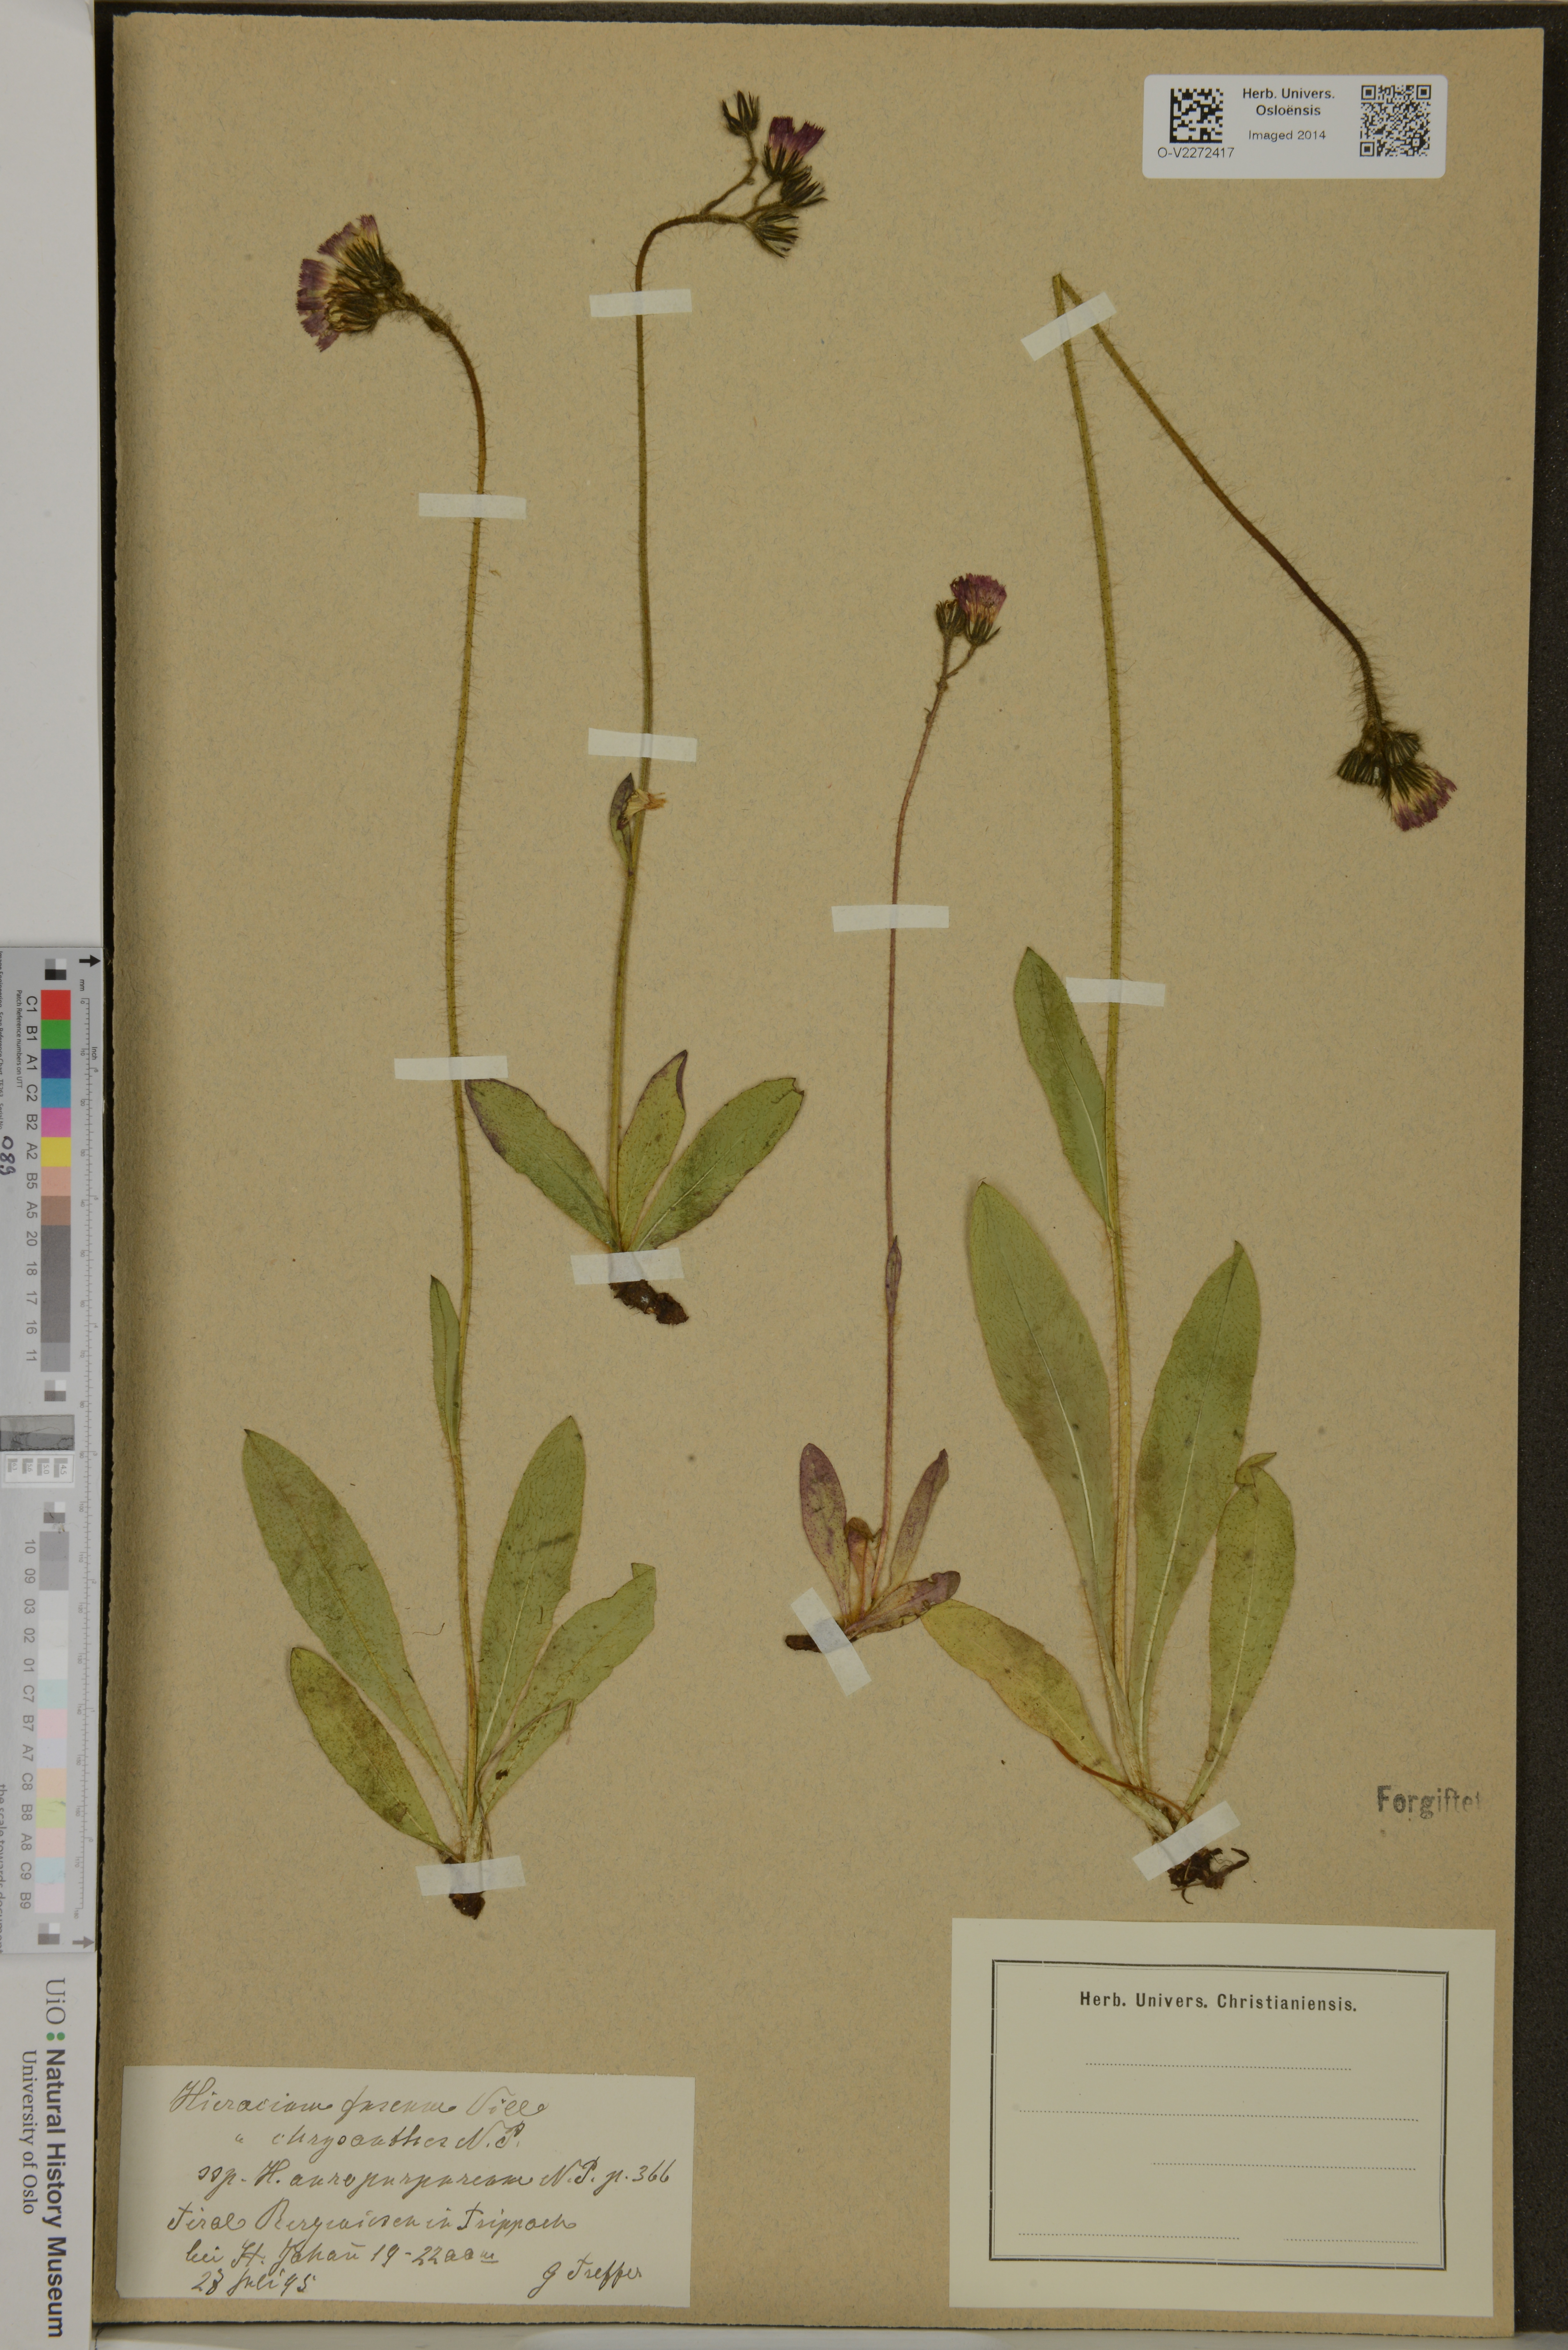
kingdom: Plantae
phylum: Tracheophyta
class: Magnoliopsida
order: Asterales
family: Asteraceae
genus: Pilosella
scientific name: Pilosella fusca
